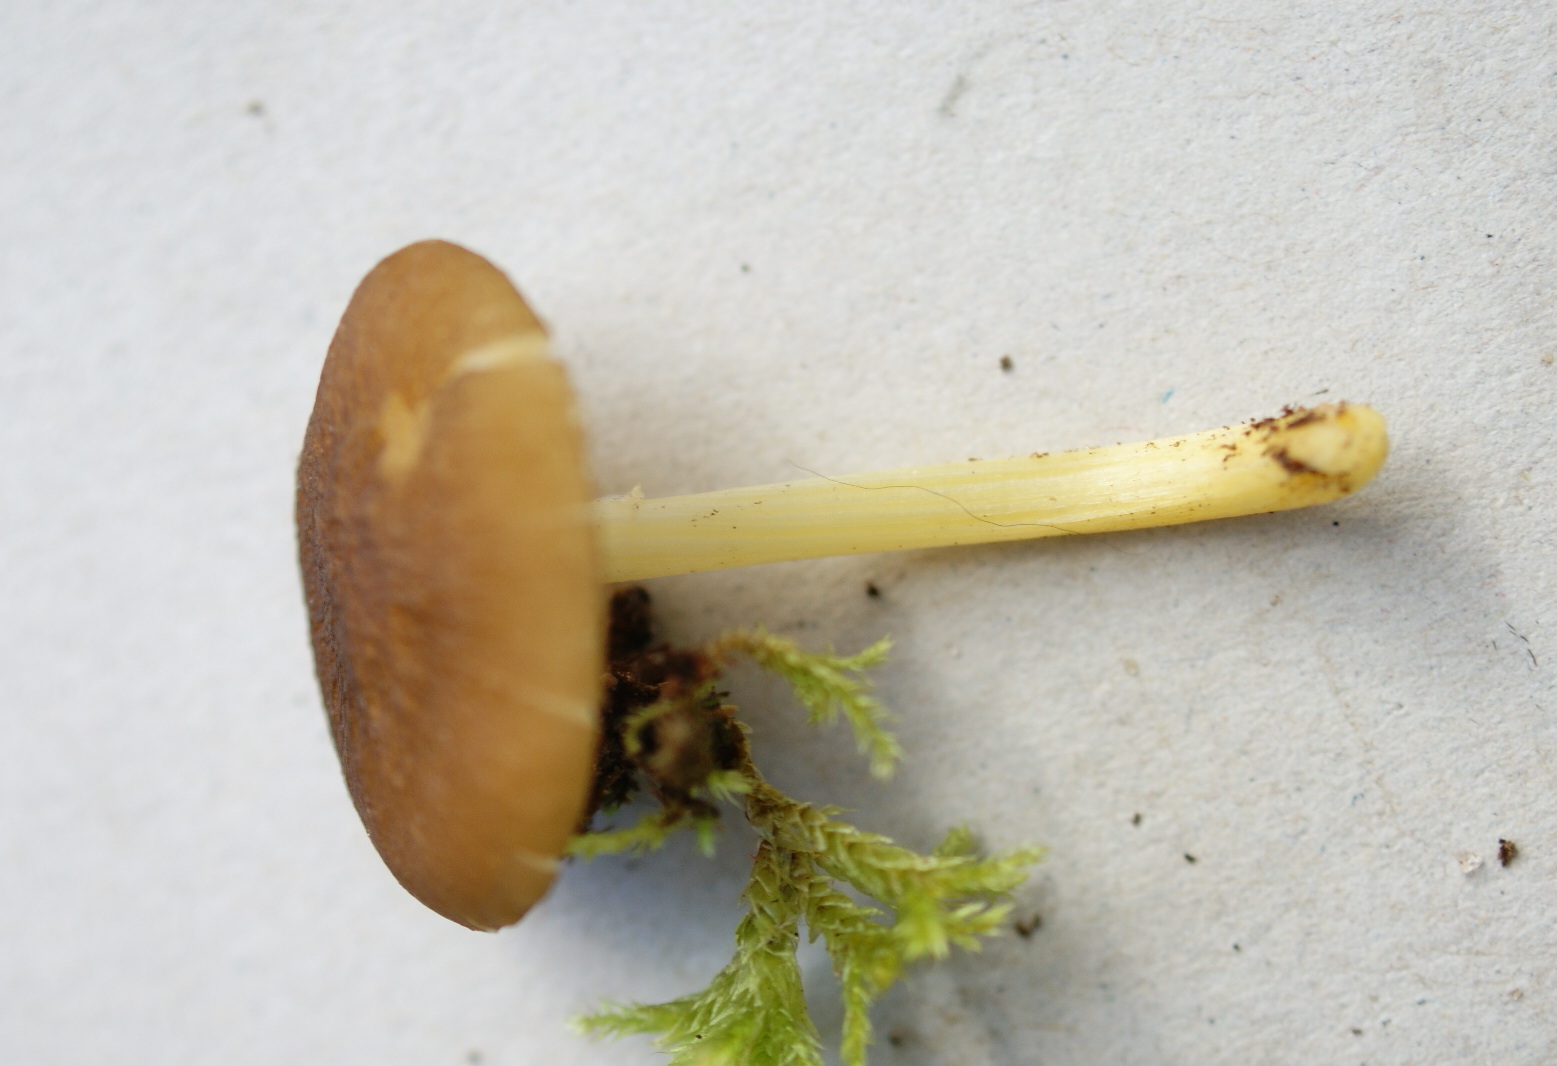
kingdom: Fungi
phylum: Basidiomycota
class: Agaricomycetes
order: Agaricales
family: Pluteaceae
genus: Pluteus
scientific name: Pluteus romellii
